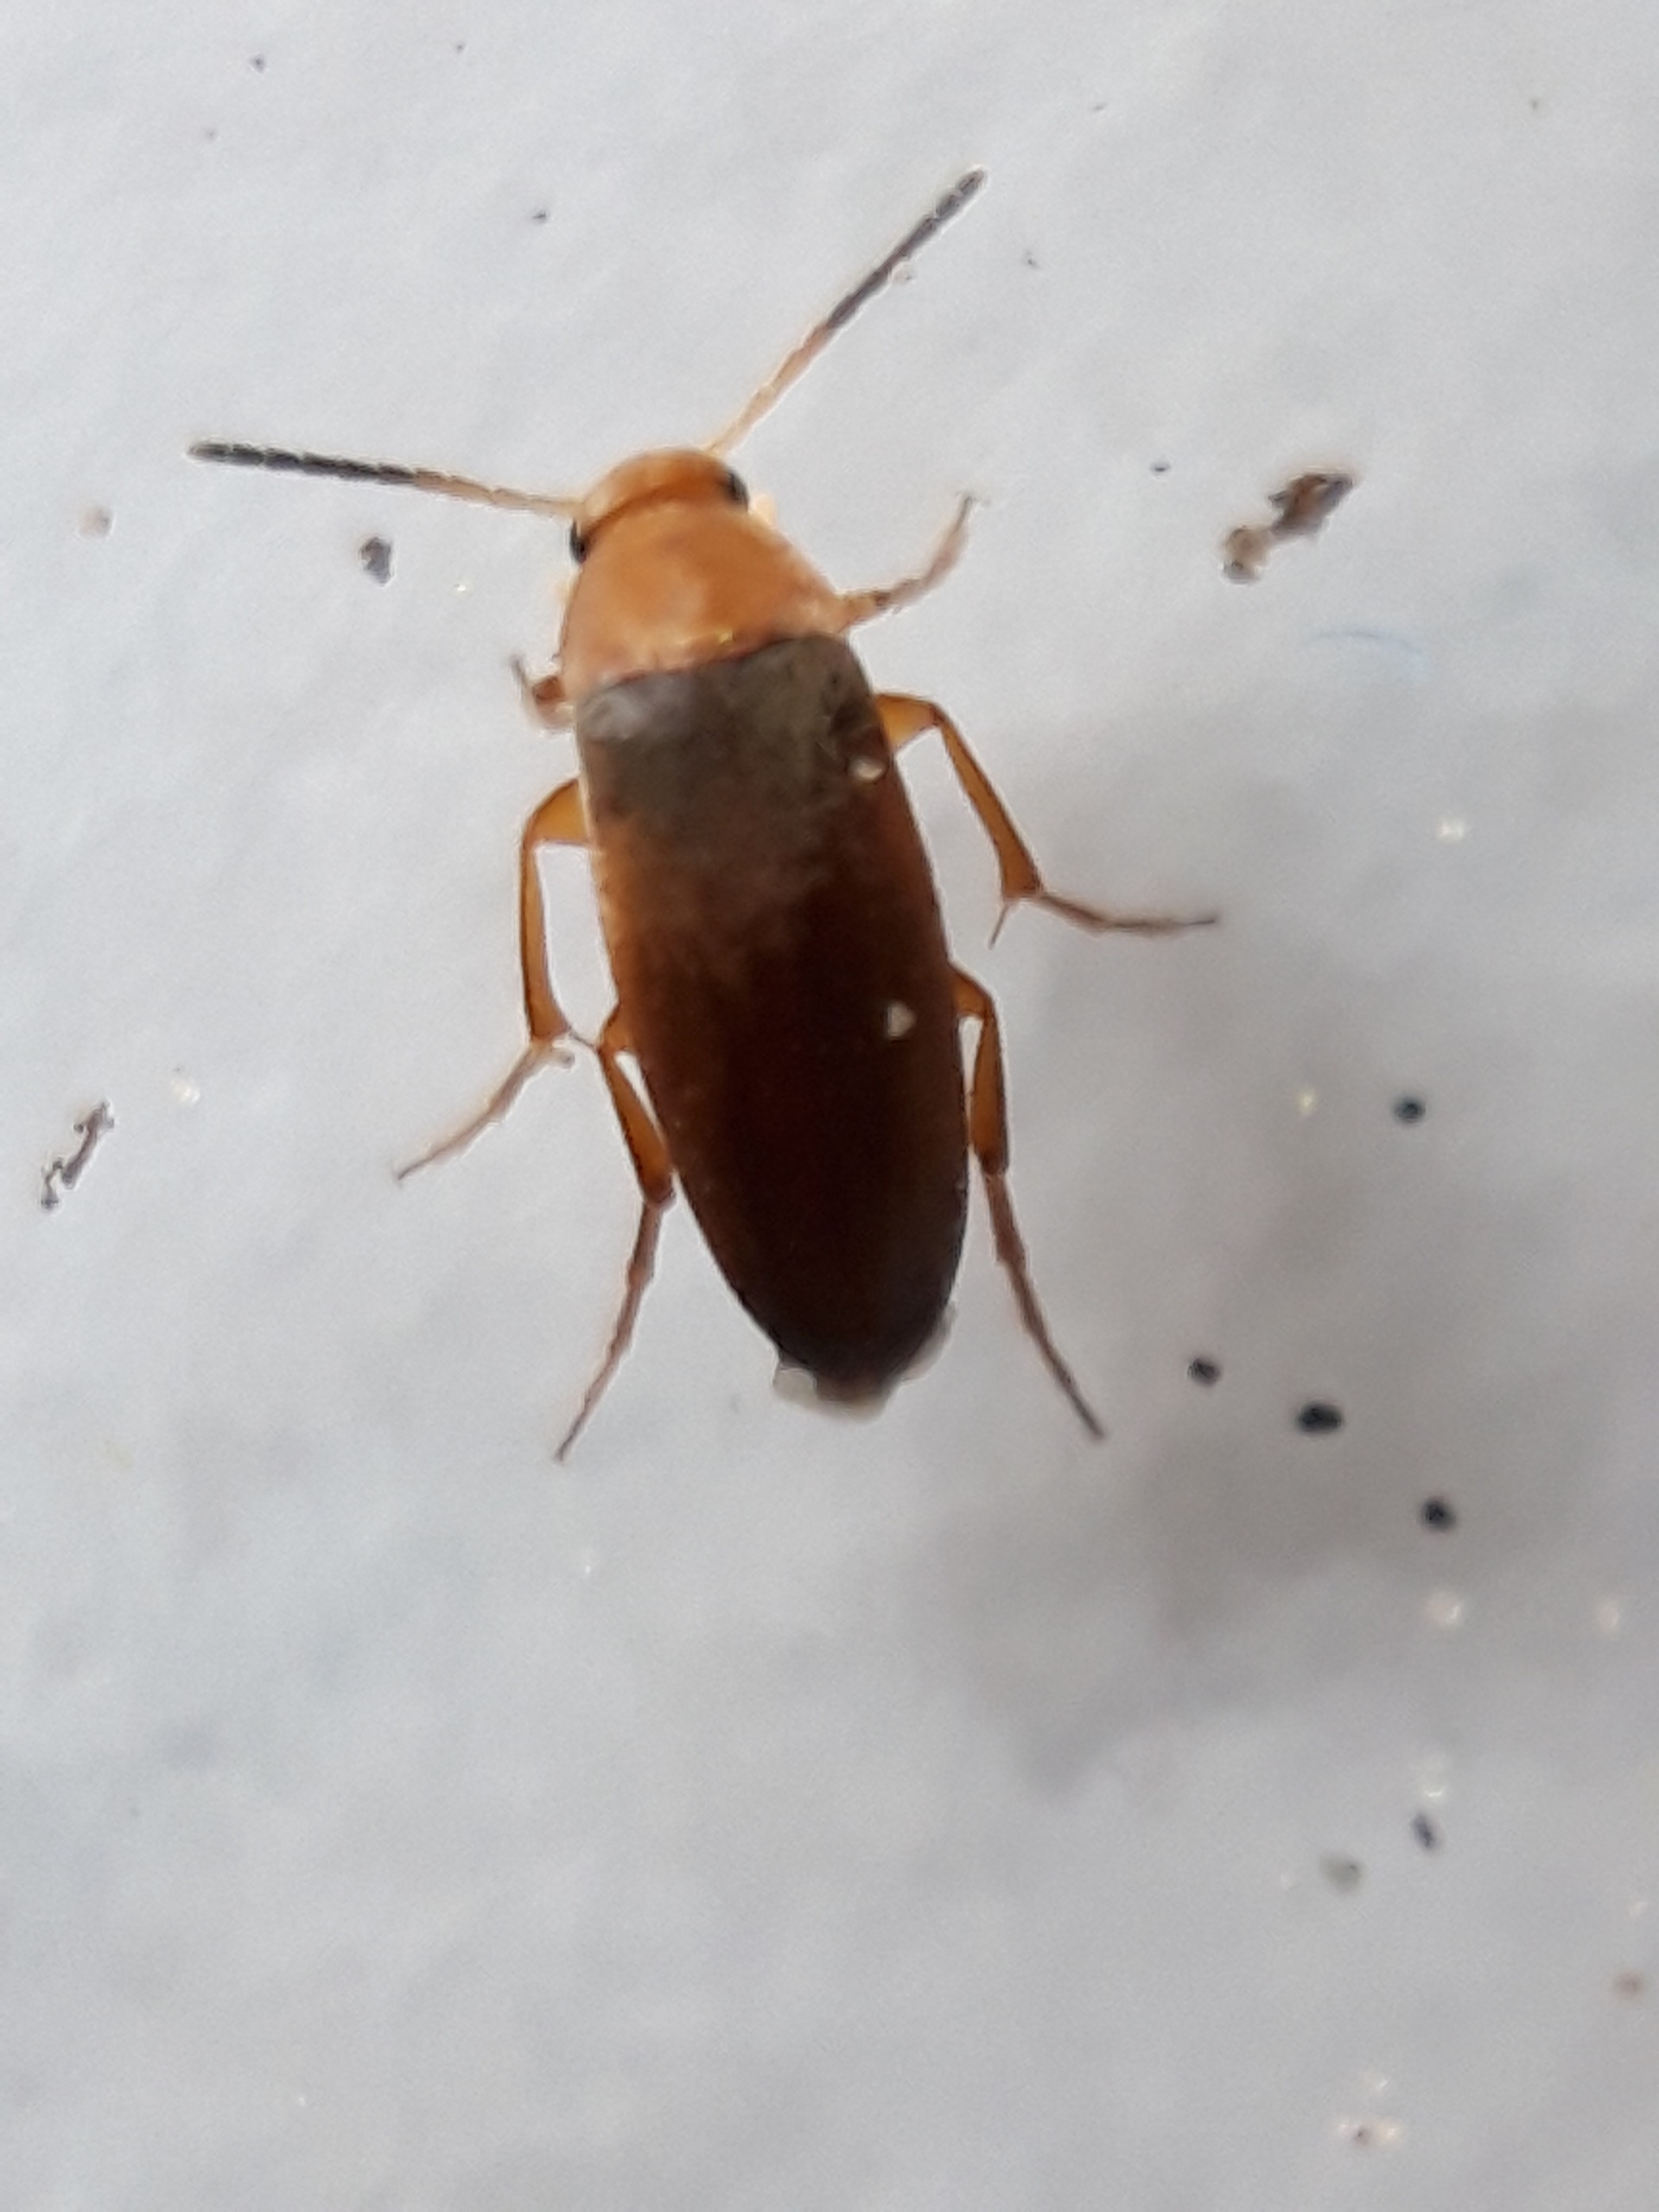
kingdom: Animalia
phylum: Arthropoda
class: Insecta
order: Coleoptera
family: Scraptiidae
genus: Anaspis
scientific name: Anaspis flava
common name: Gul spidshale
